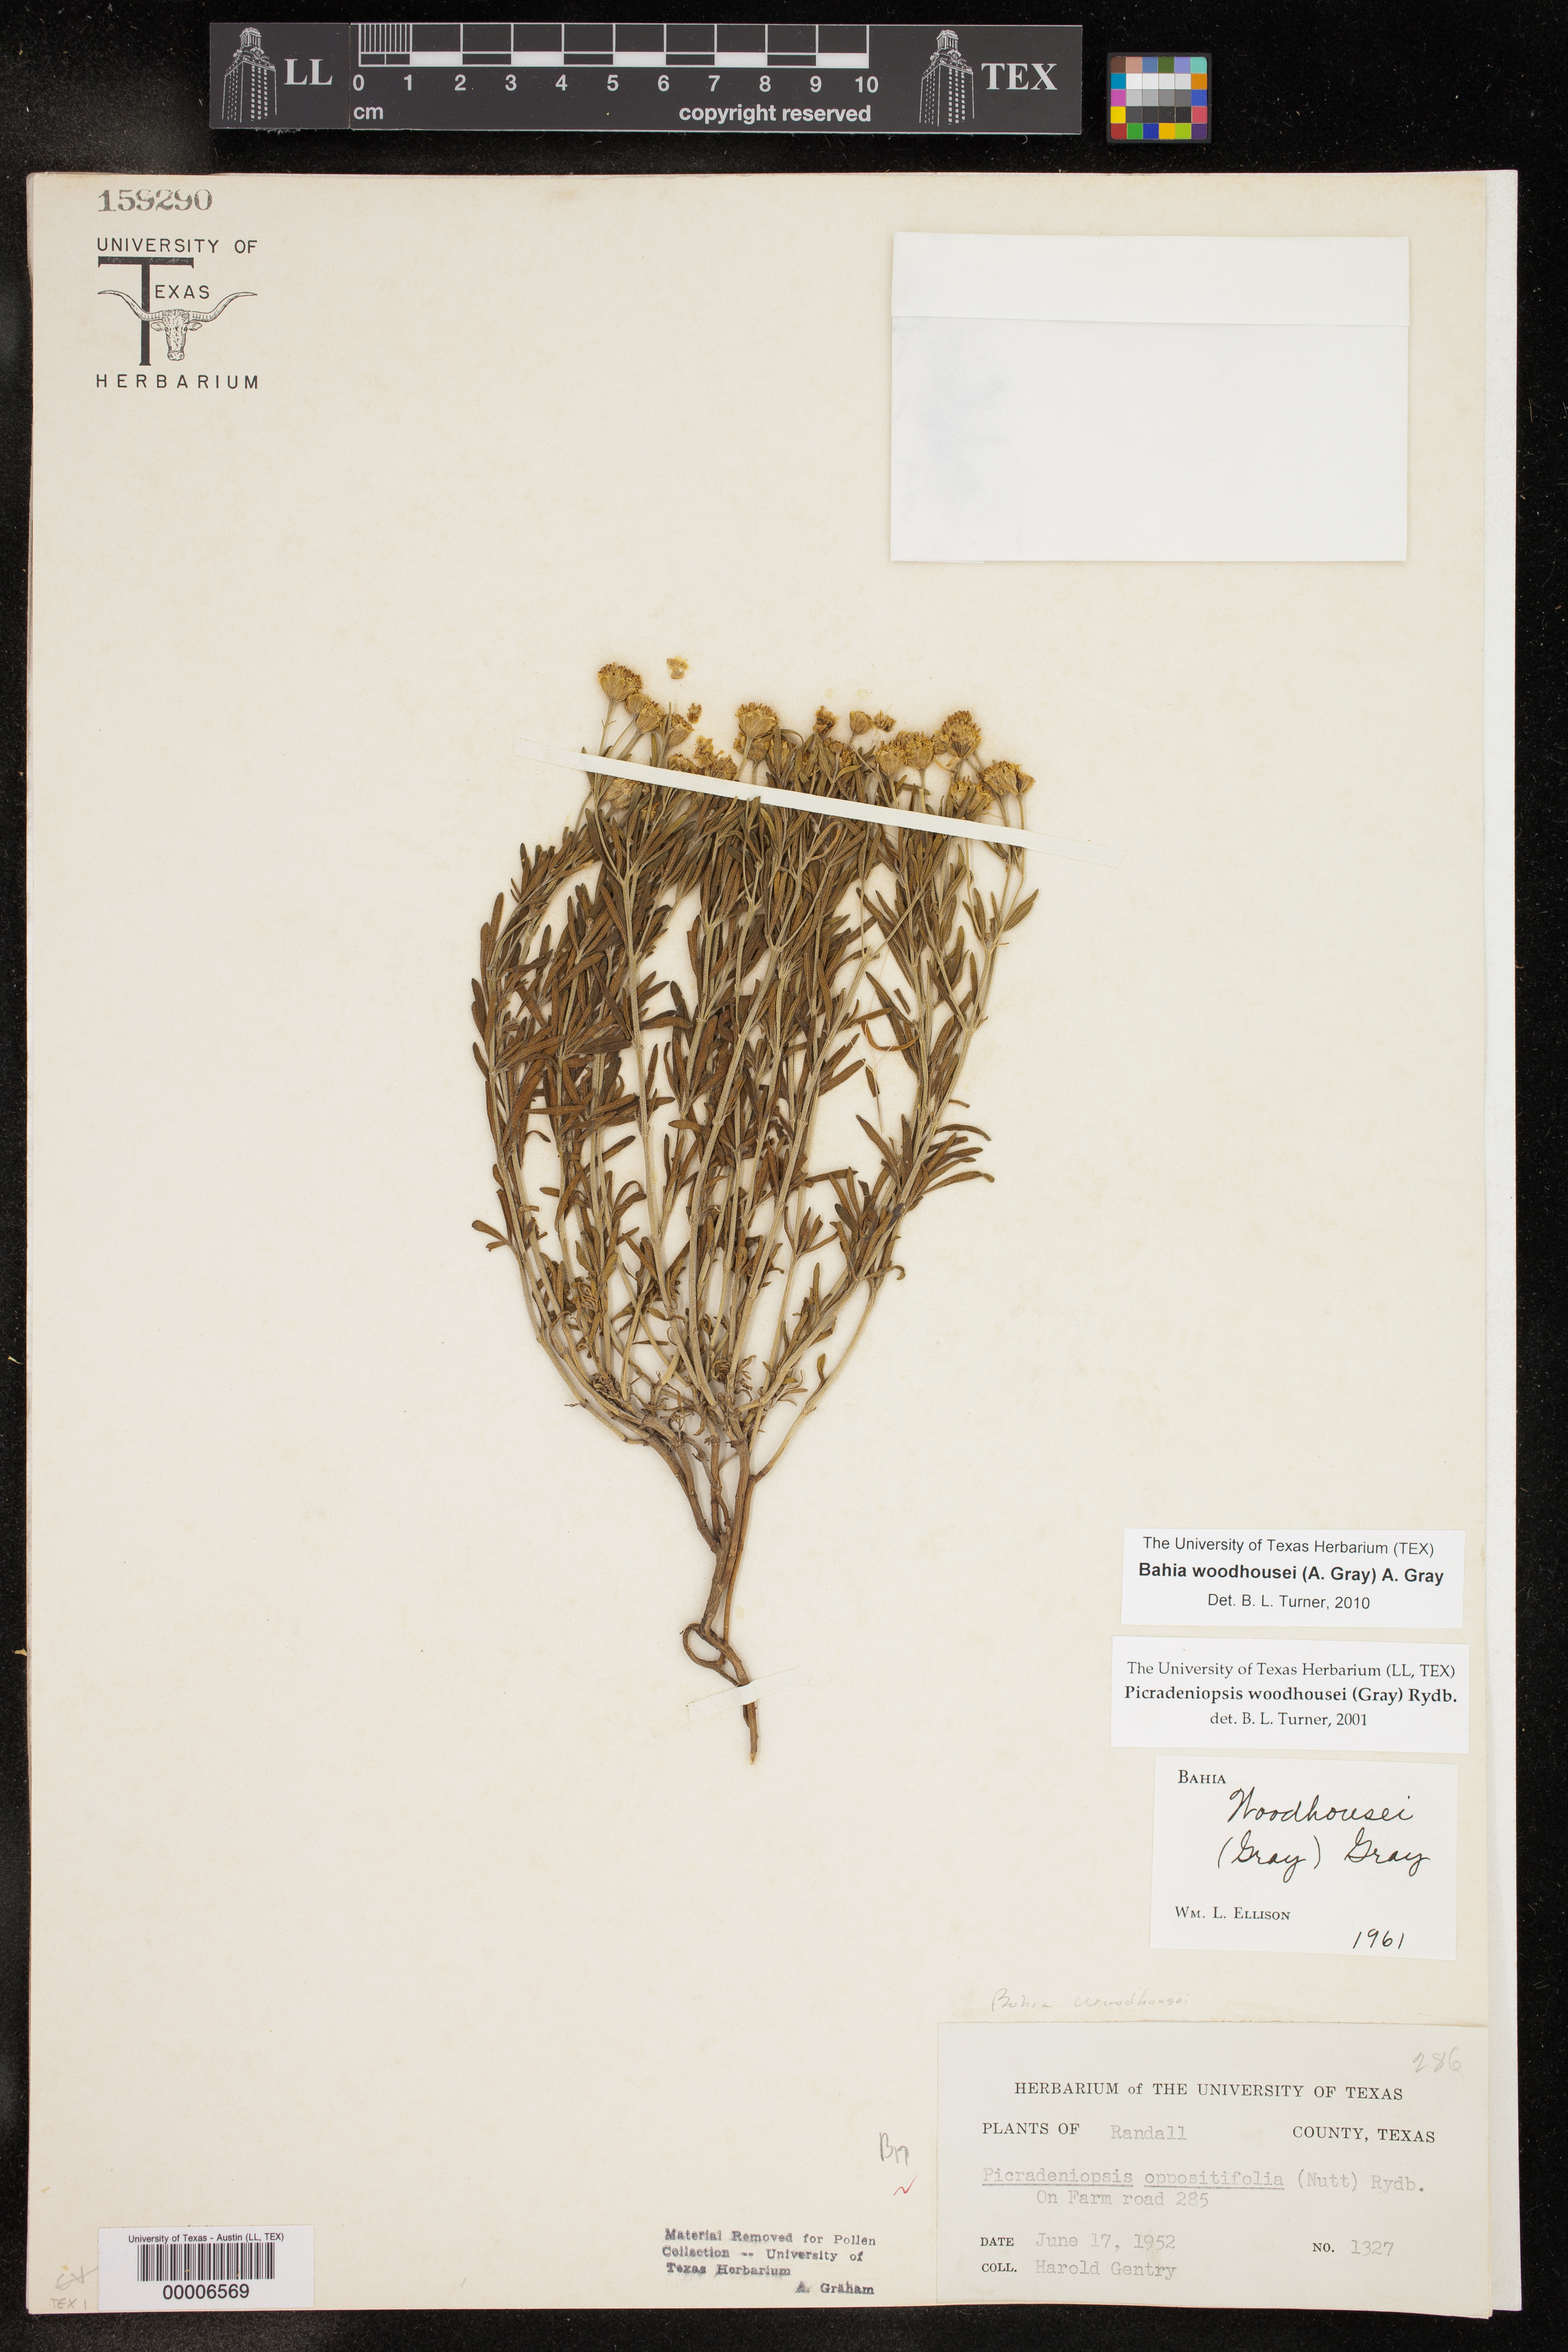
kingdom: Plantae
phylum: Tracheophyta
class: Magnoliopsida
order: Asterales
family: Asteraceae
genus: Picradeniopsis
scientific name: Picradeniopsis woodhousei
